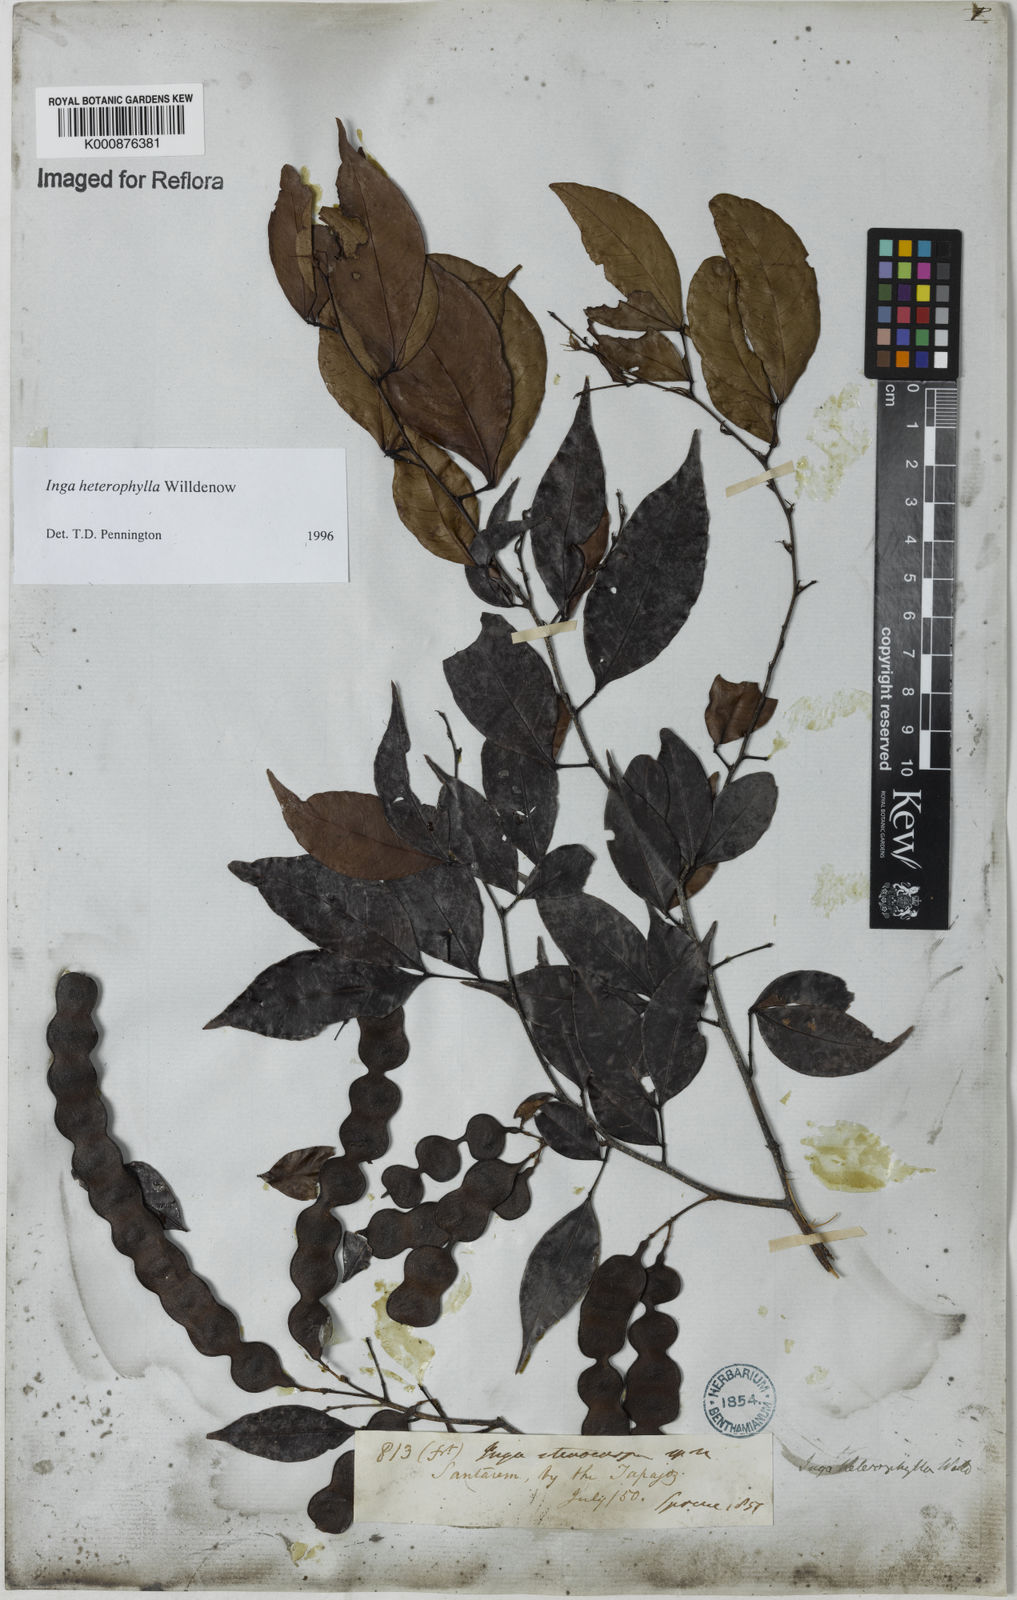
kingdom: Plantae
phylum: Tracheophyta
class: Magnoliopsida
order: Fabales
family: Fabaceae
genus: Inga
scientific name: Inga heterophylla
